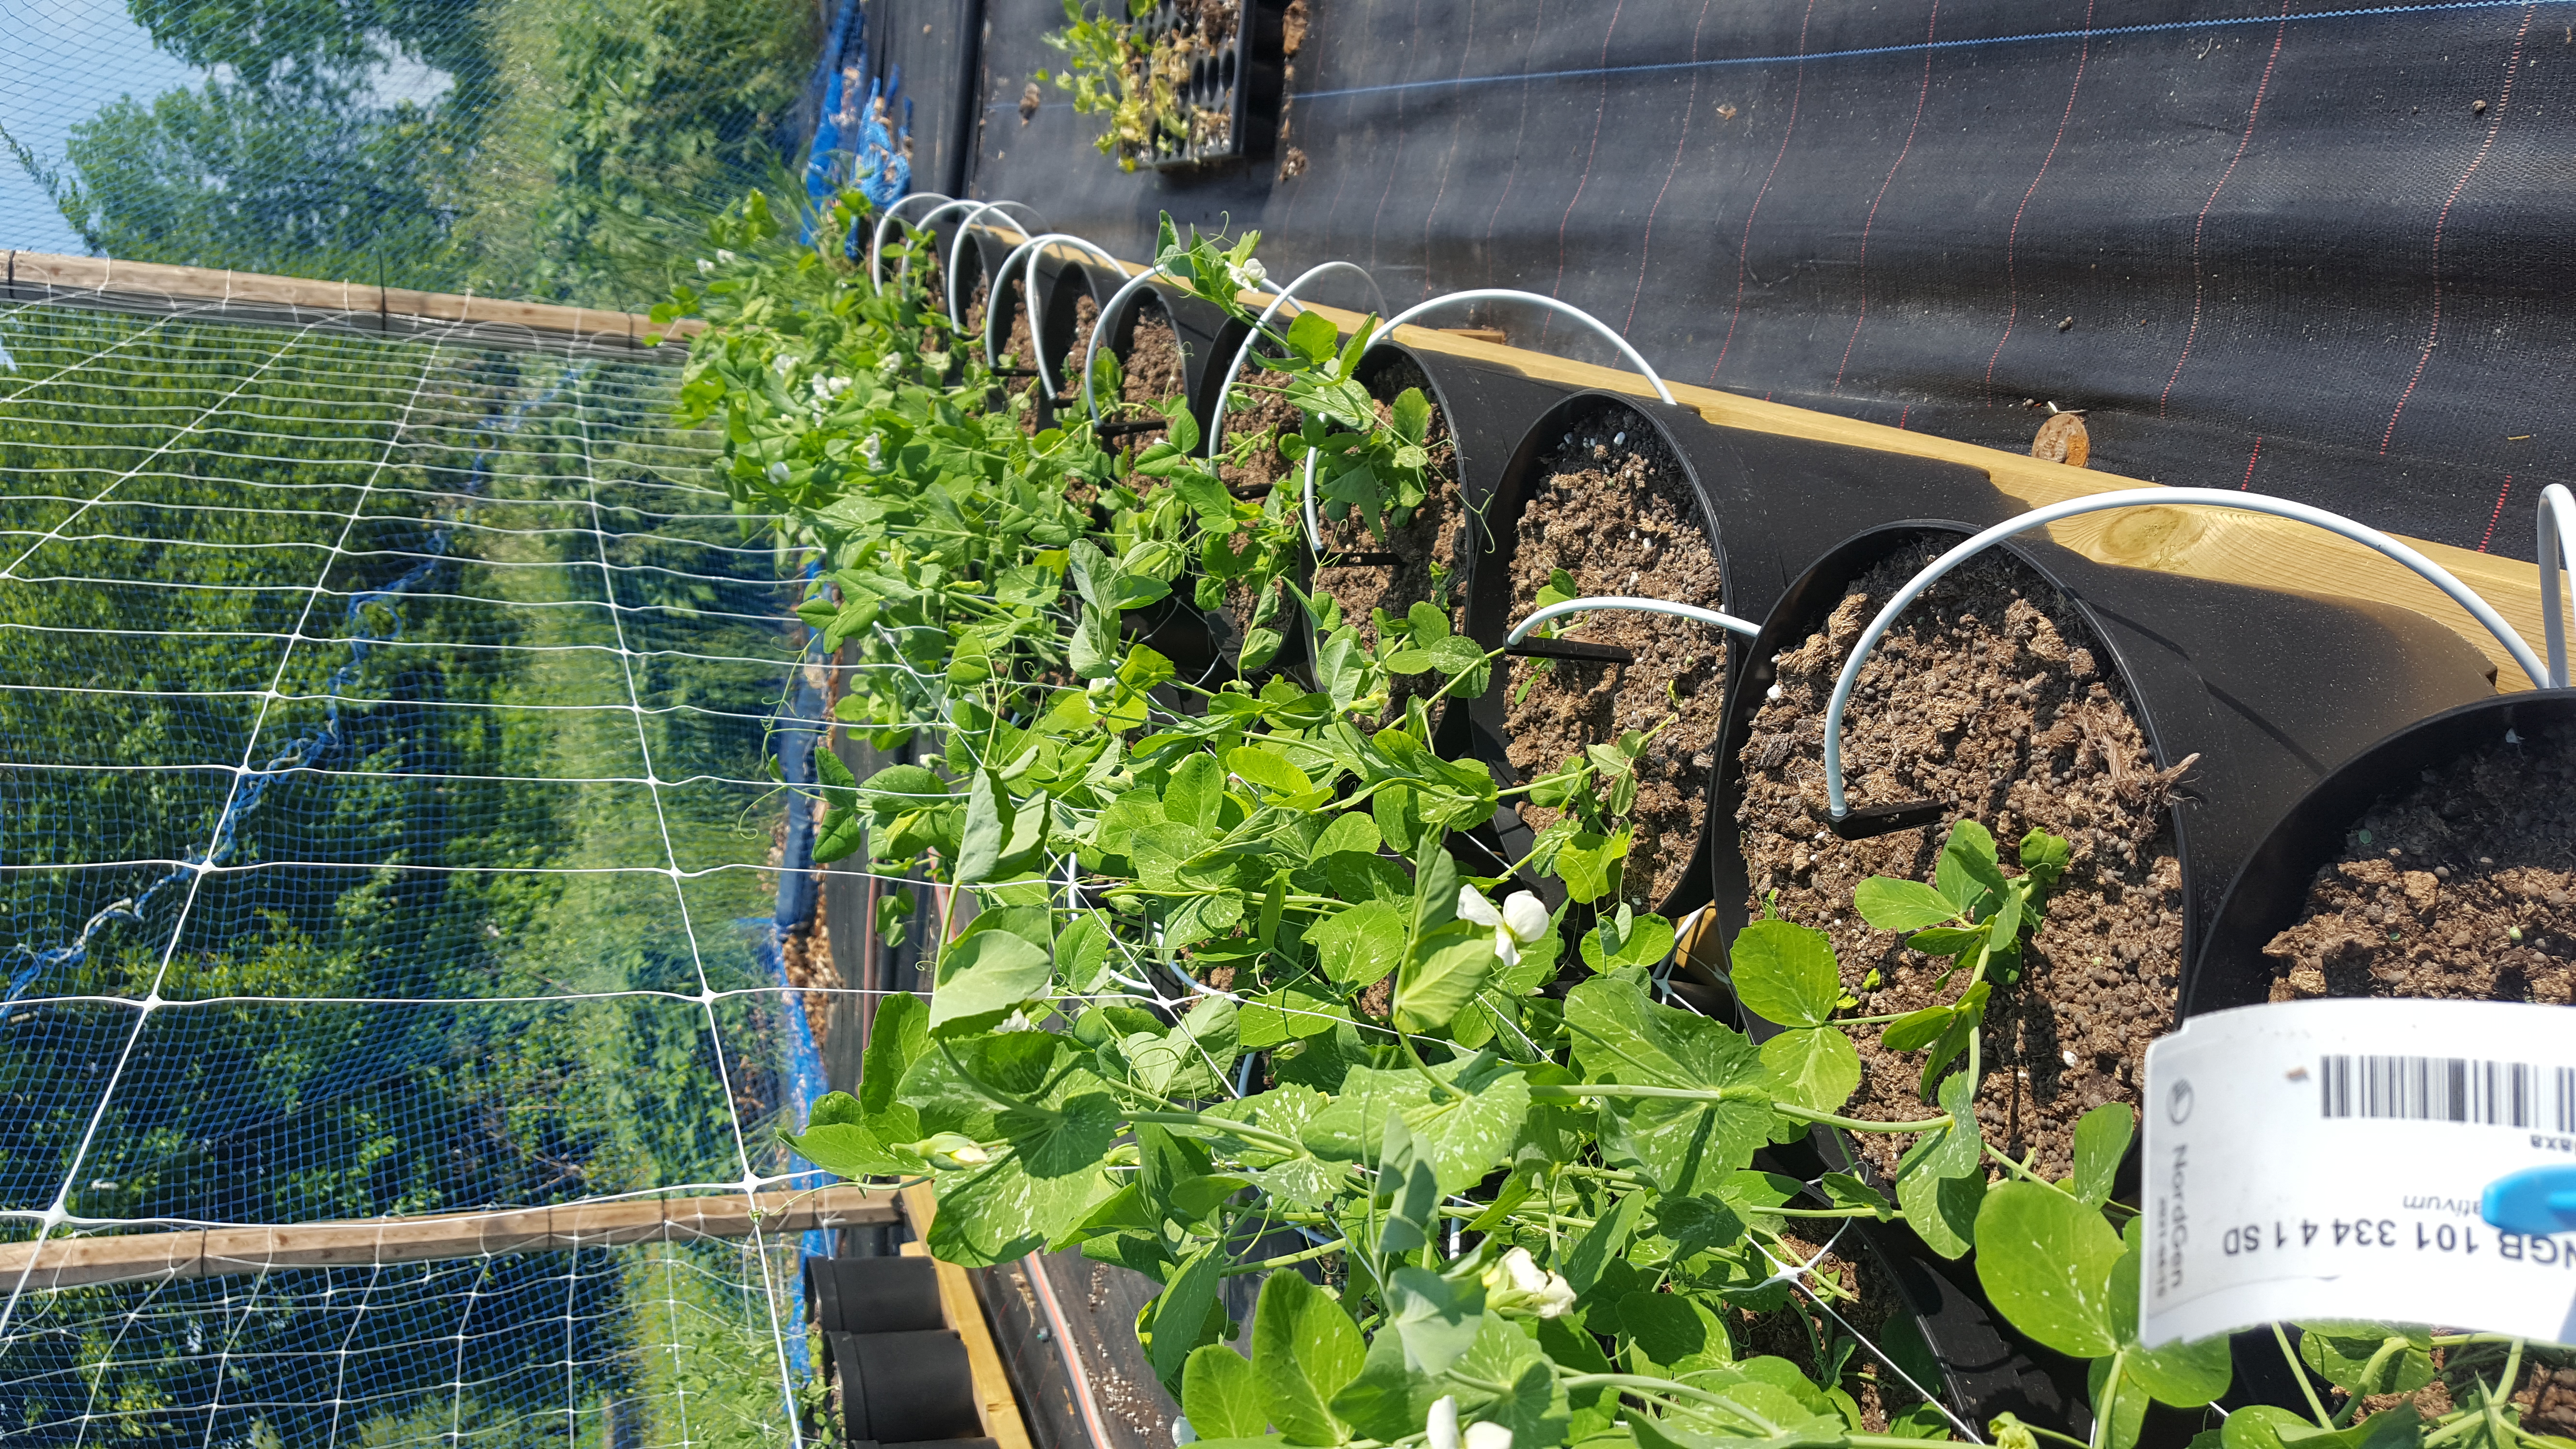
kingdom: Plantae
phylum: Tracheophyta
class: Magnoliopsida
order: Fabales
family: Fabaceae
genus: Lathyrus
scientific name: Lathyrus oleraceus
